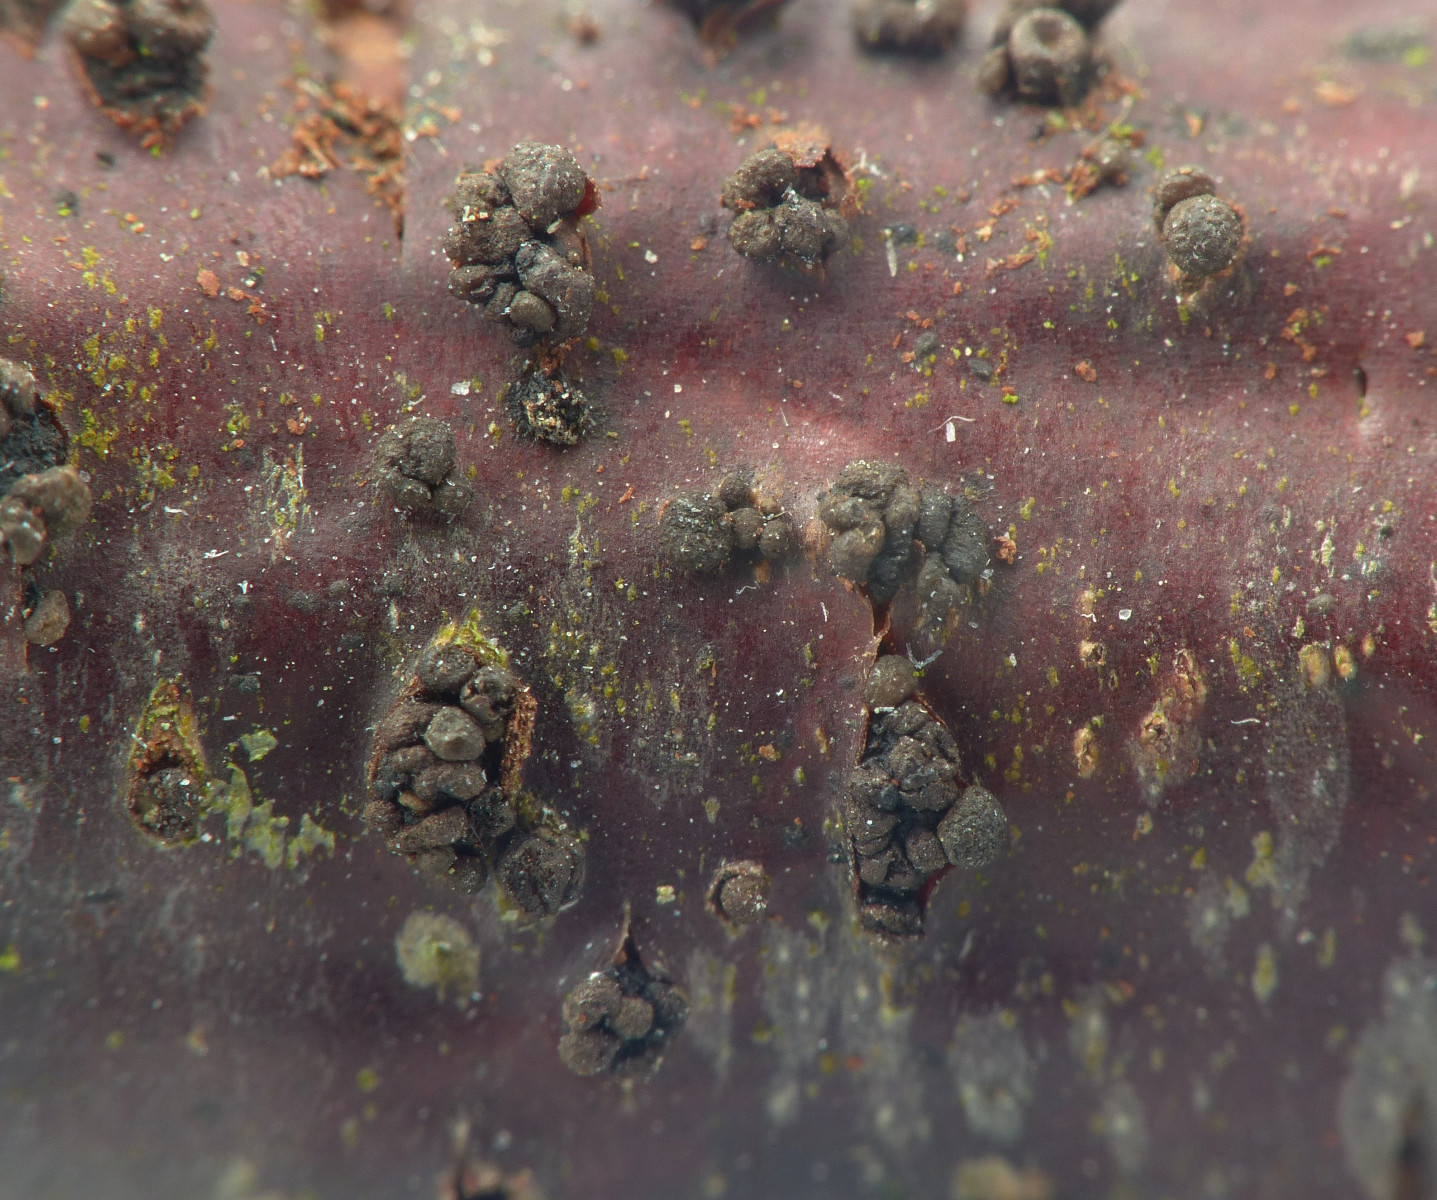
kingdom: Fungi
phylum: Ascomycota
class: Leotiomycetes
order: Helotiales
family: Godroniaceae
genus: Godronia
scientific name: Godronia uberiformis
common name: solbær-urneskive
